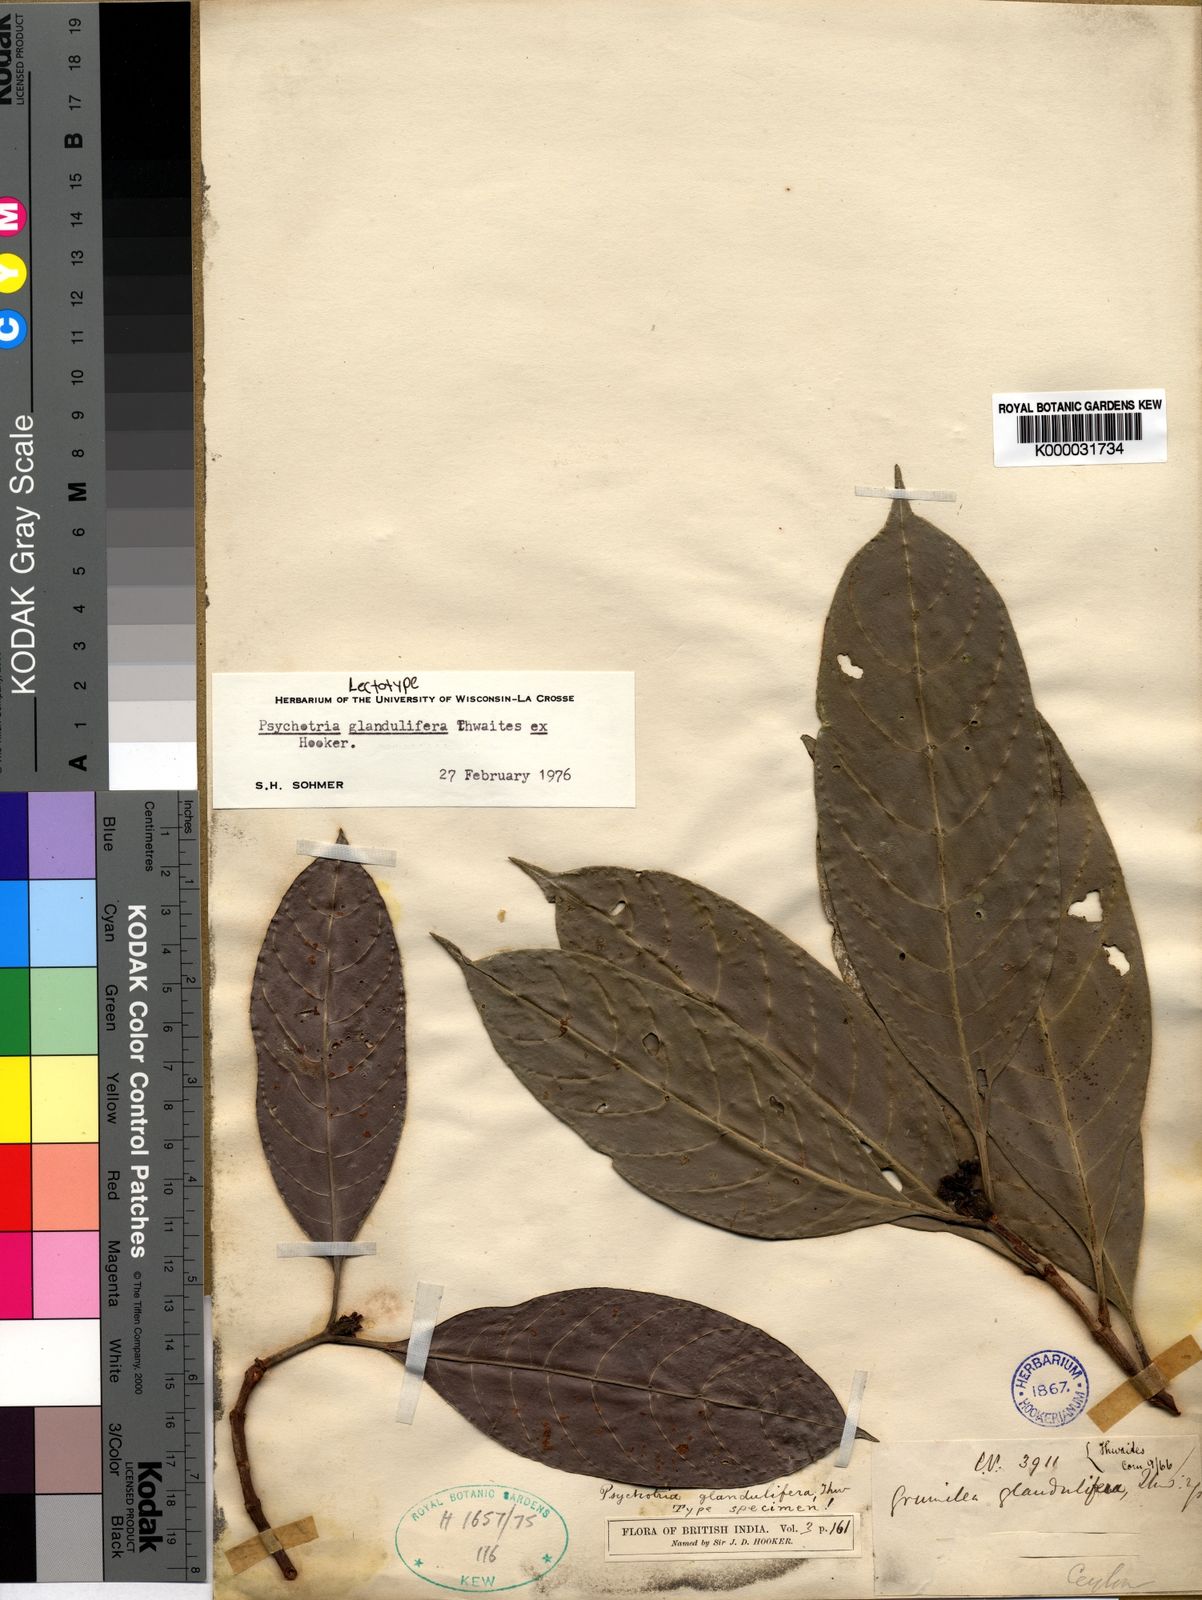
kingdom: Plantae
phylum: Tracheophyta
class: Magnoliopsida
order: Gentianales
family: Rubiaceae
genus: Psychotria
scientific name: Psychotria
